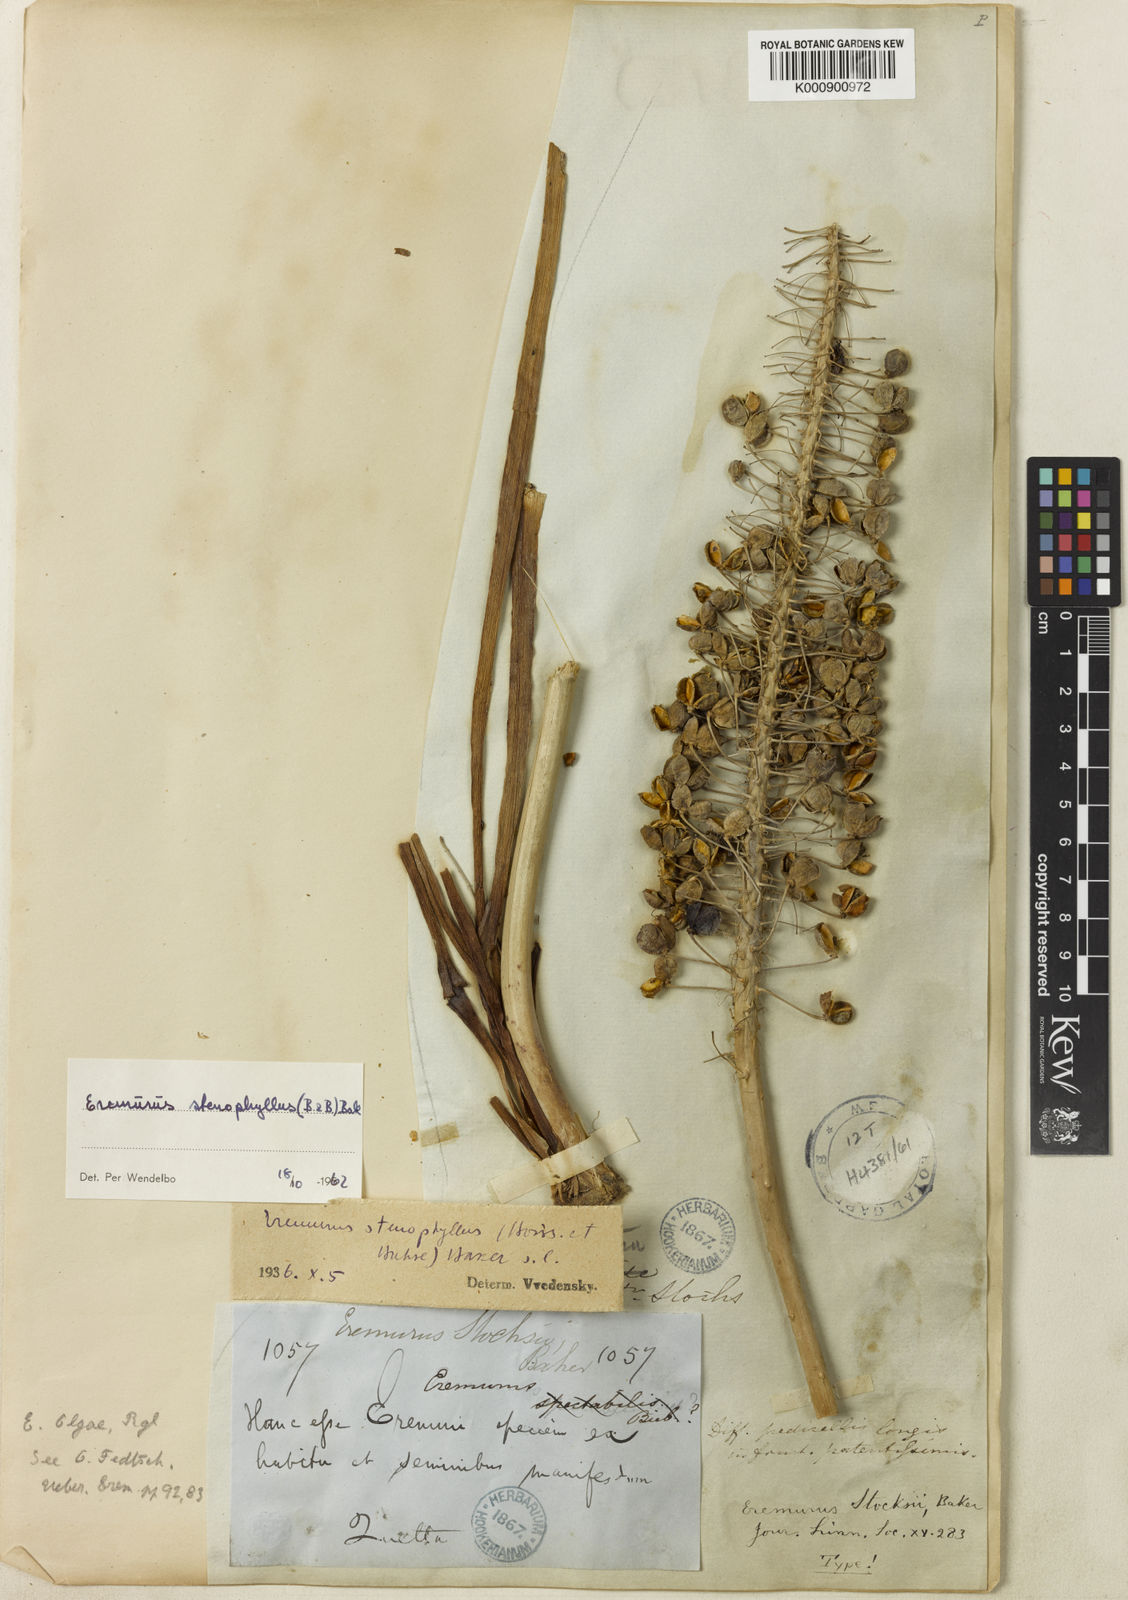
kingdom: Plantae
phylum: Tracheophyta
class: Liliopsida
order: Asparagales
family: Asphodelaceae
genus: Eremurus
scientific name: Eremurus stenophyllus
